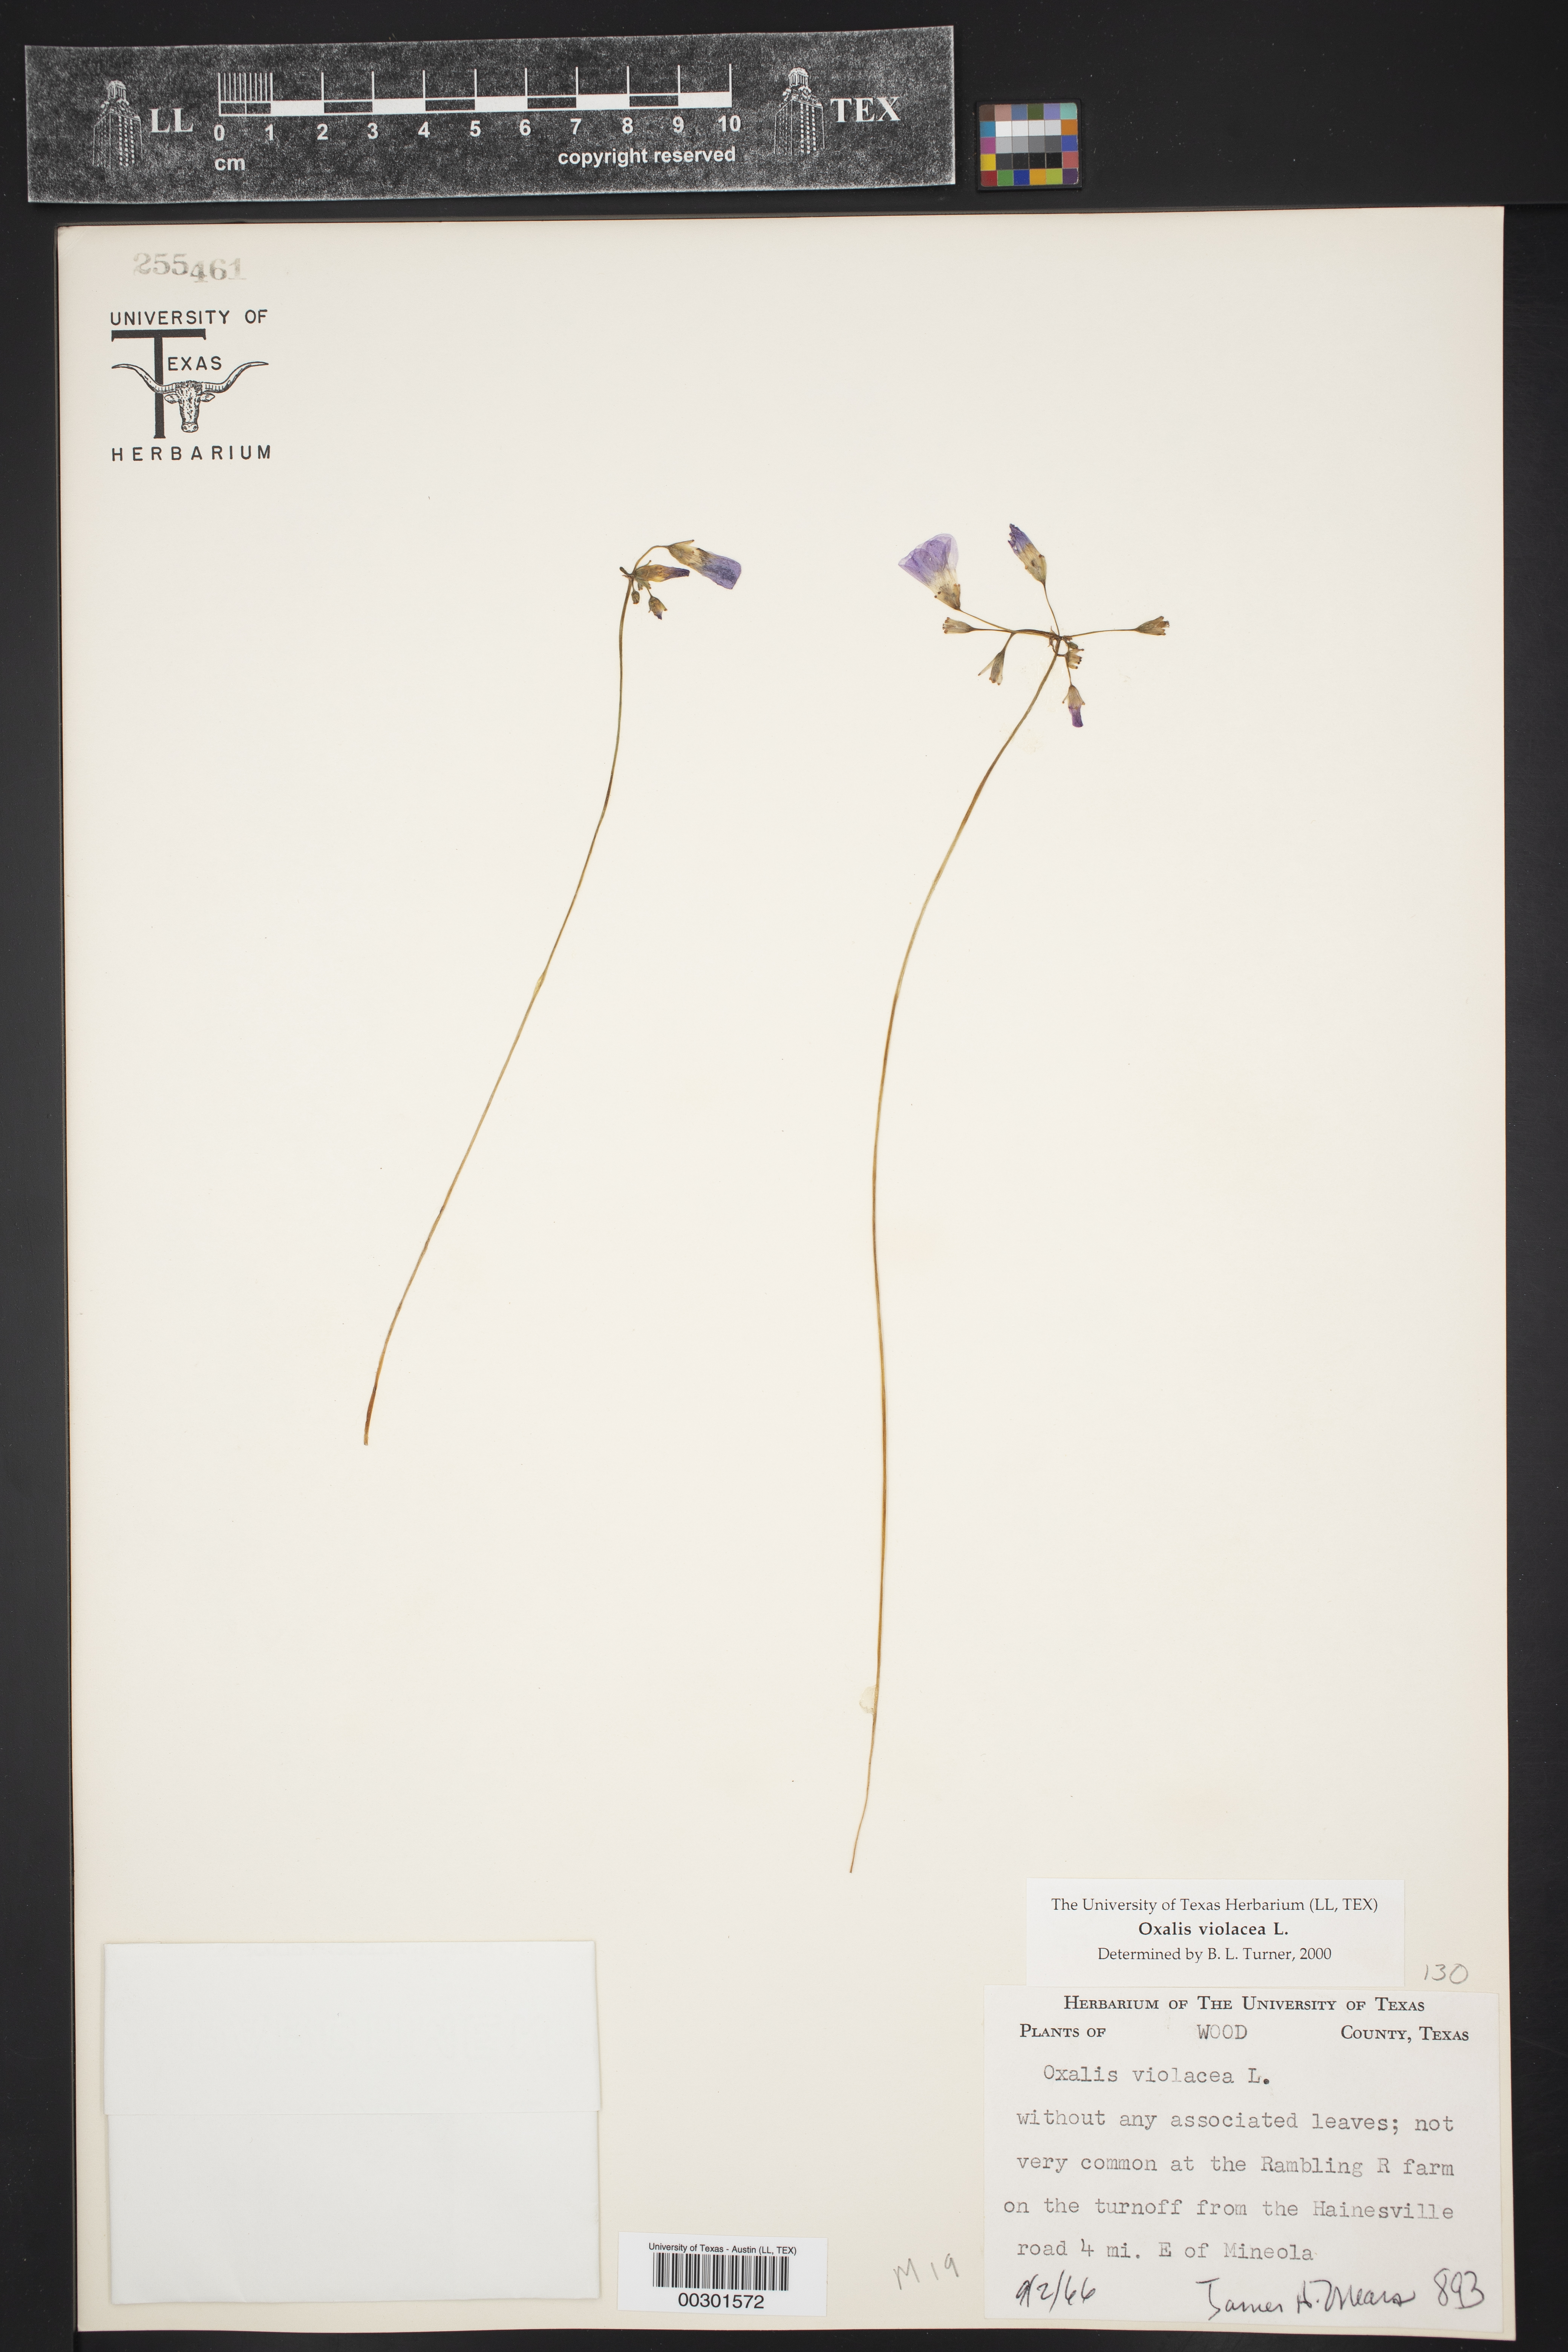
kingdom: Plantae
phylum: Tracheophyta
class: Magnoliopsida
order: Oxalidales
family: Oxalidaceae
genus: Oxalis
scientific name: Oxalis violacea
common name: Violet wood-sorrel
